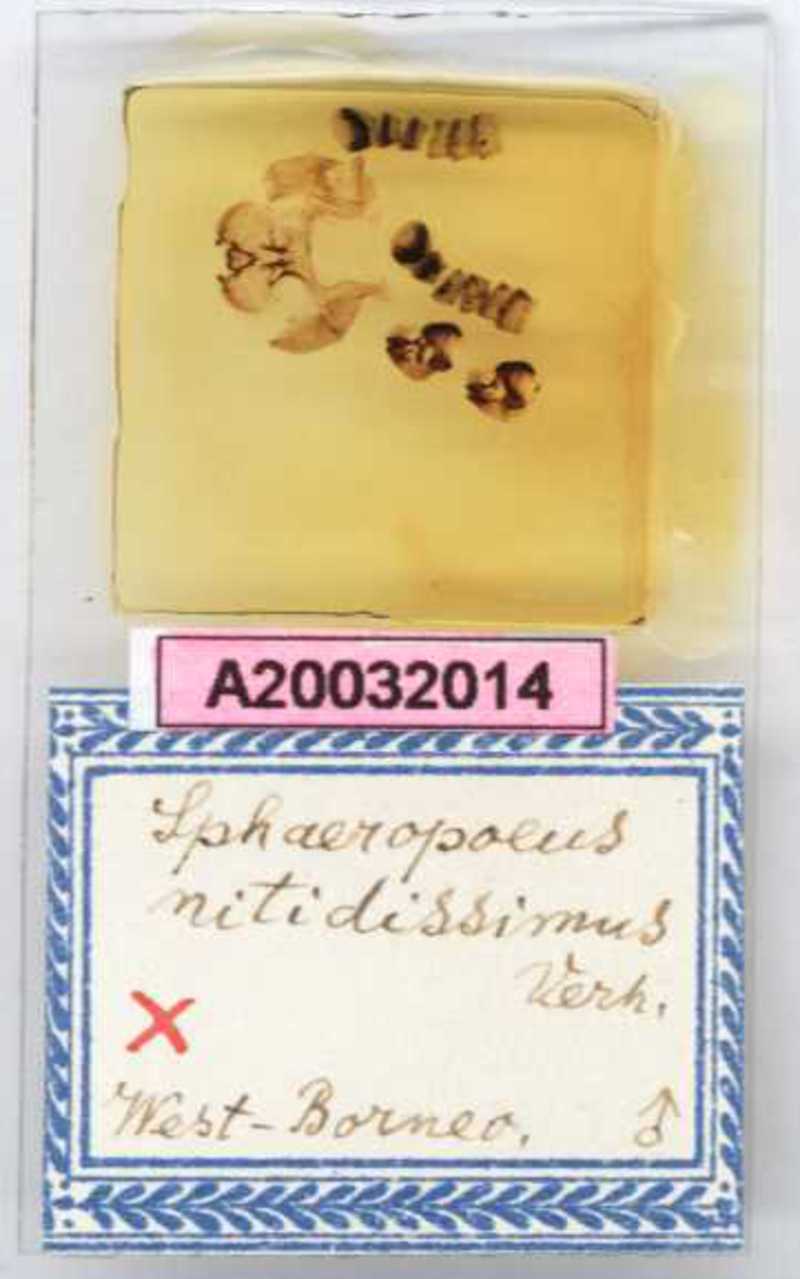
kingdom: Animalia
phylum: Arthropoda
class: Diplopoda
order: Sphaerotheriida
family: Zephroniidae
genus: Sphaeropoeus
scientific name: Sphaeropoeus
